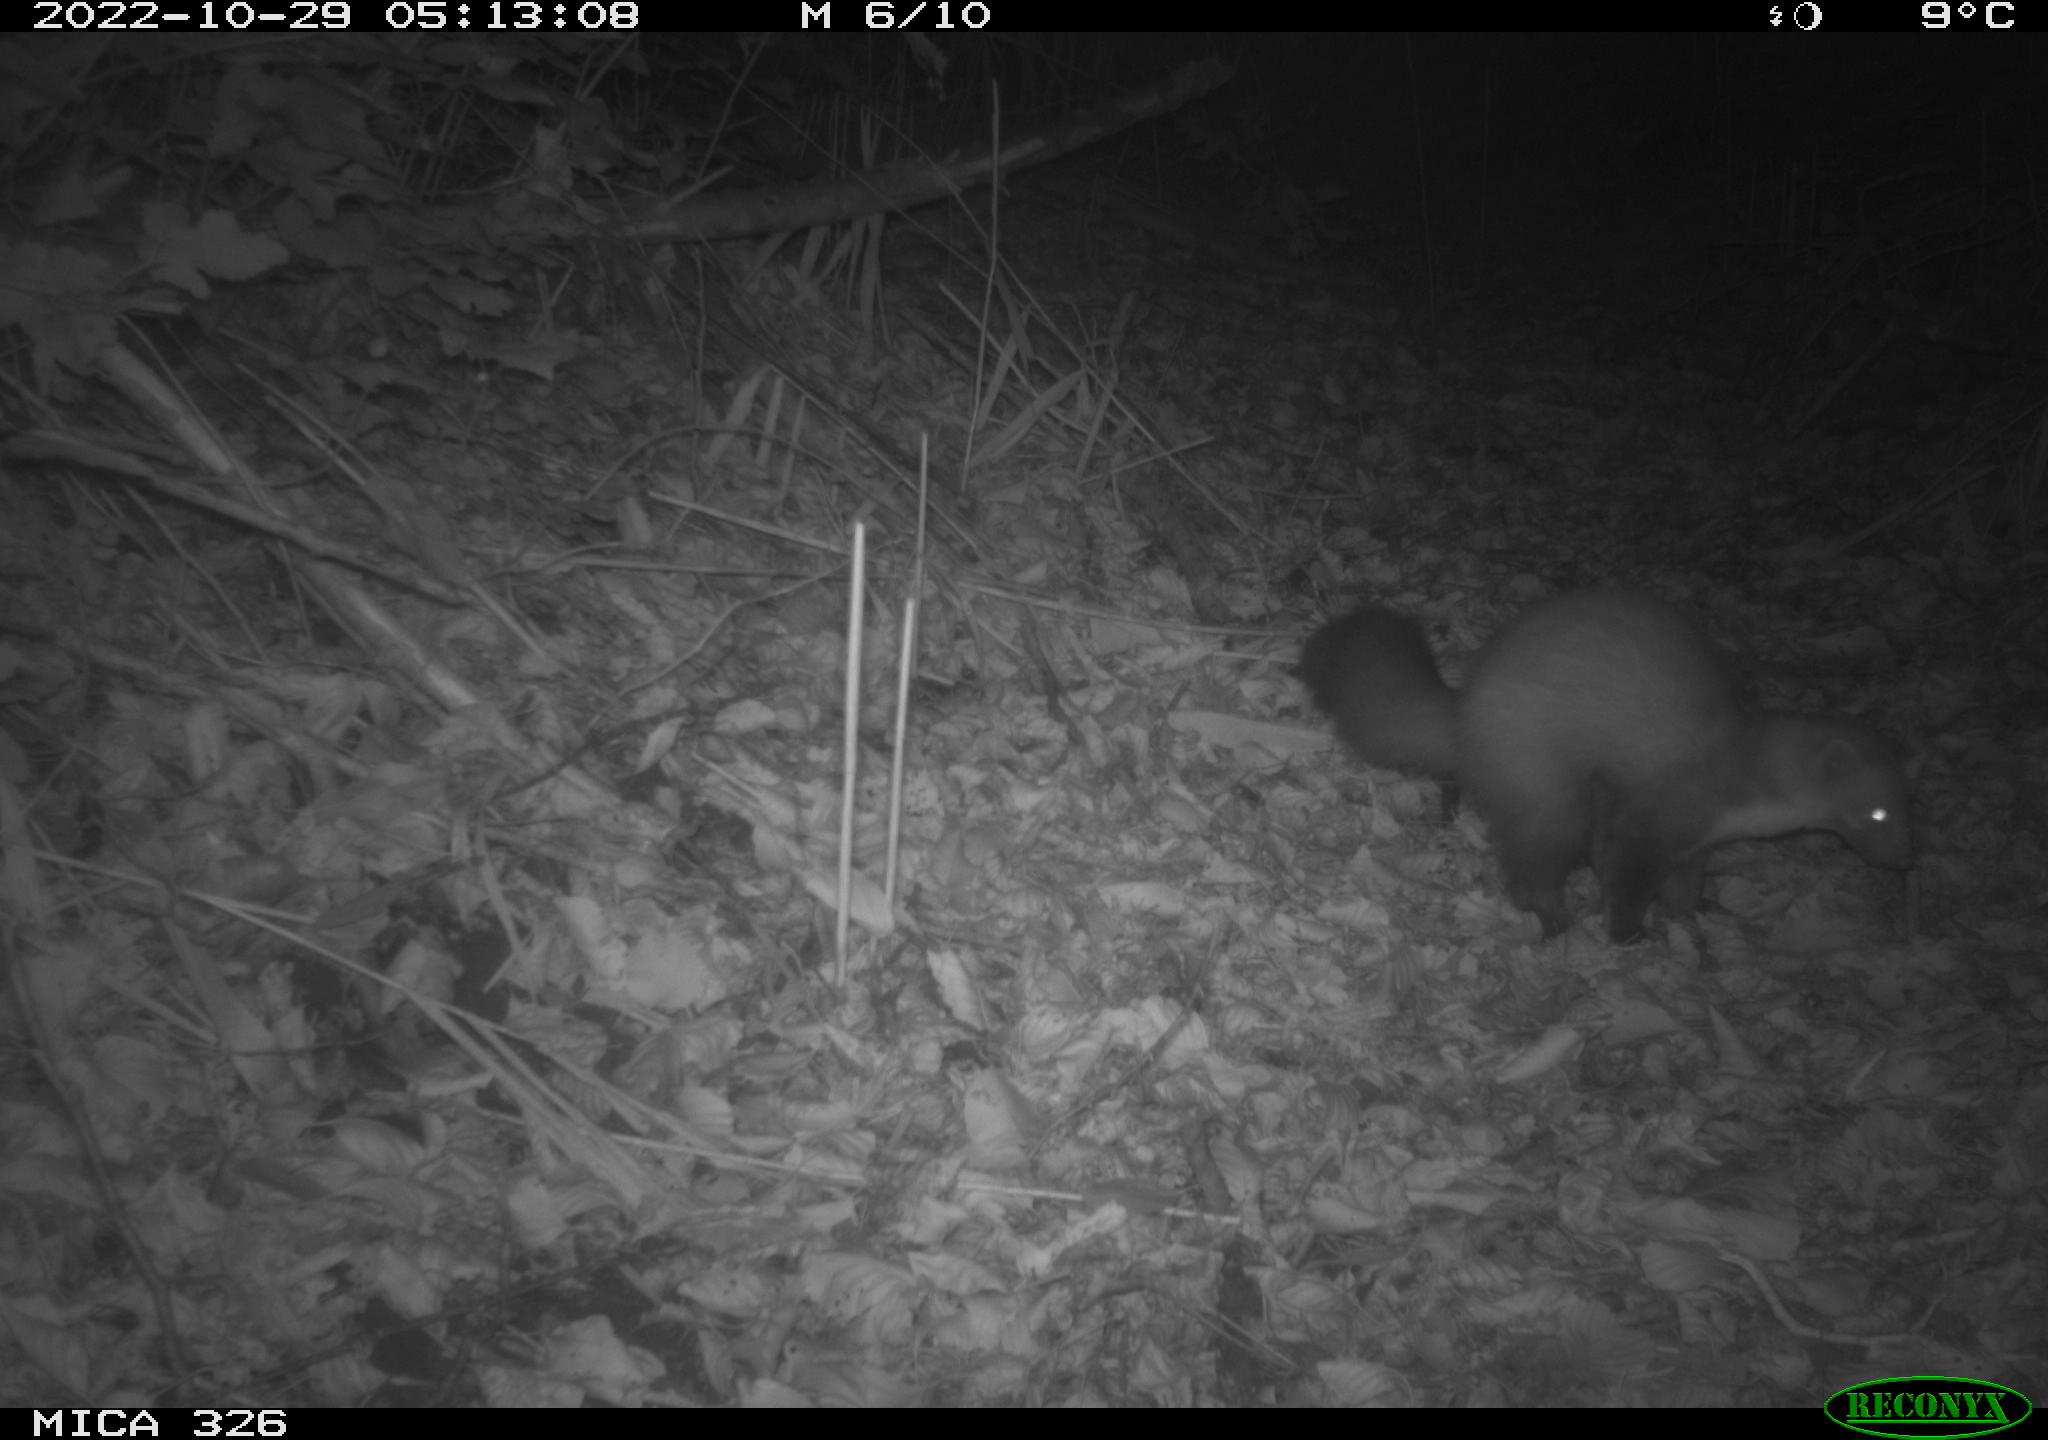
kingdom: Animalia
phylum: Chordata
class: Mammalia
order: Carnivora
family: Mustelidae
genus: Martes
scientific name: Martes martes
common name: European pine marten
